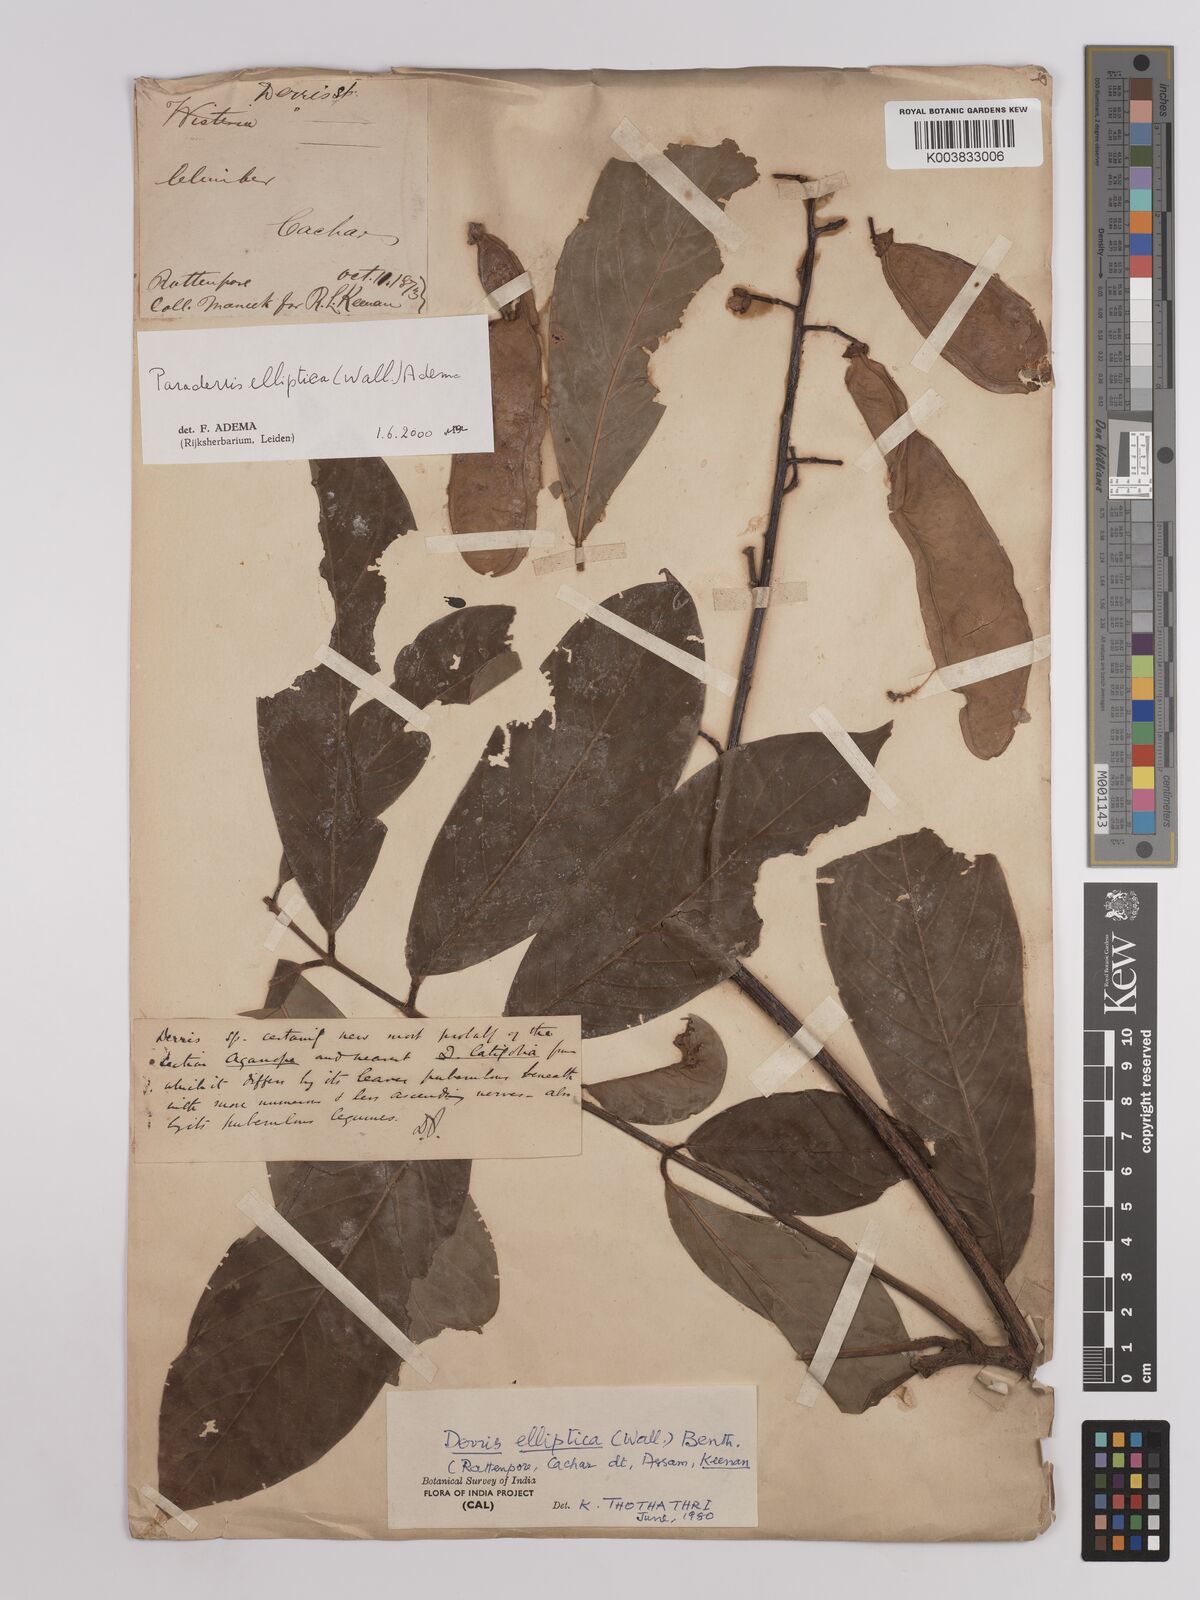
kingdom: Plantae
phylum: Tracheophyta
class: Magnoliopsida
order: Fabales
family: Fabaceae
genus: Derris
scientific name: Derris elliptica
